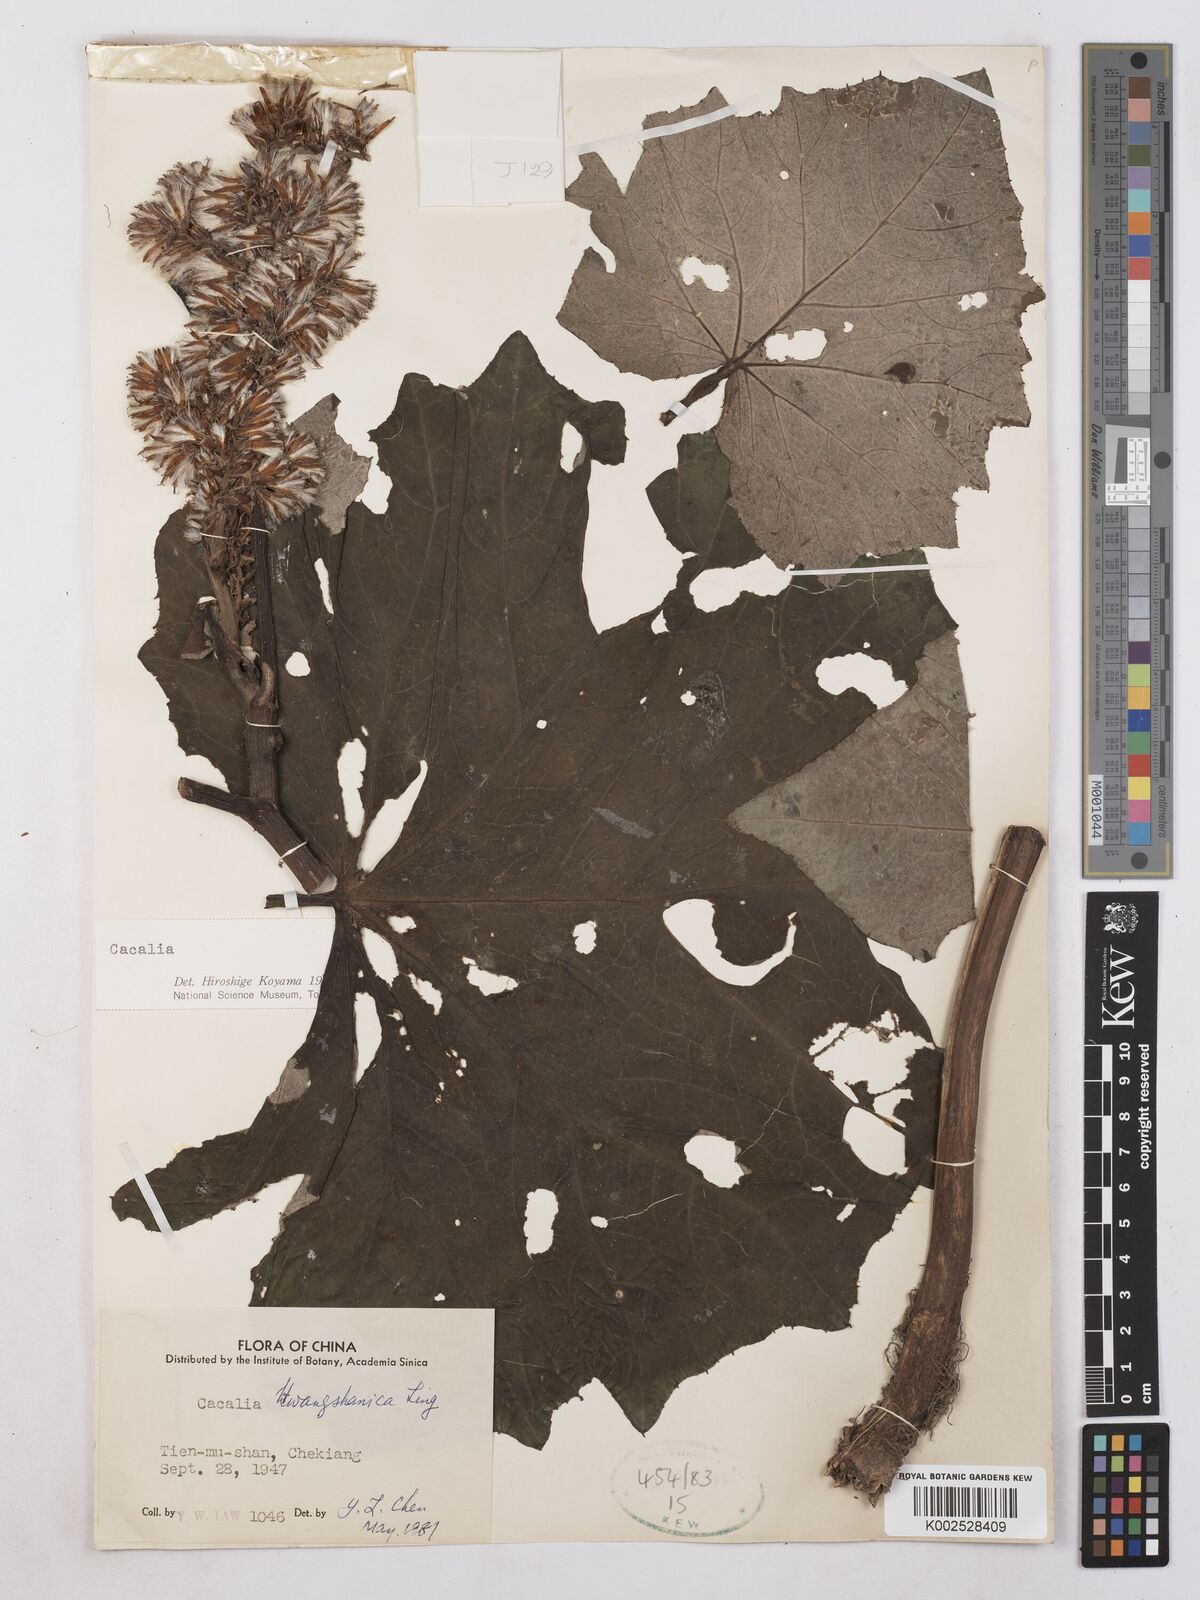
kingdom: Plantae
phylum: Tracheophyta
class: Magnoliopsida
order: Asterales
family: Asteraceae
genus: Parasenecio
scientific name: Parasenecio
